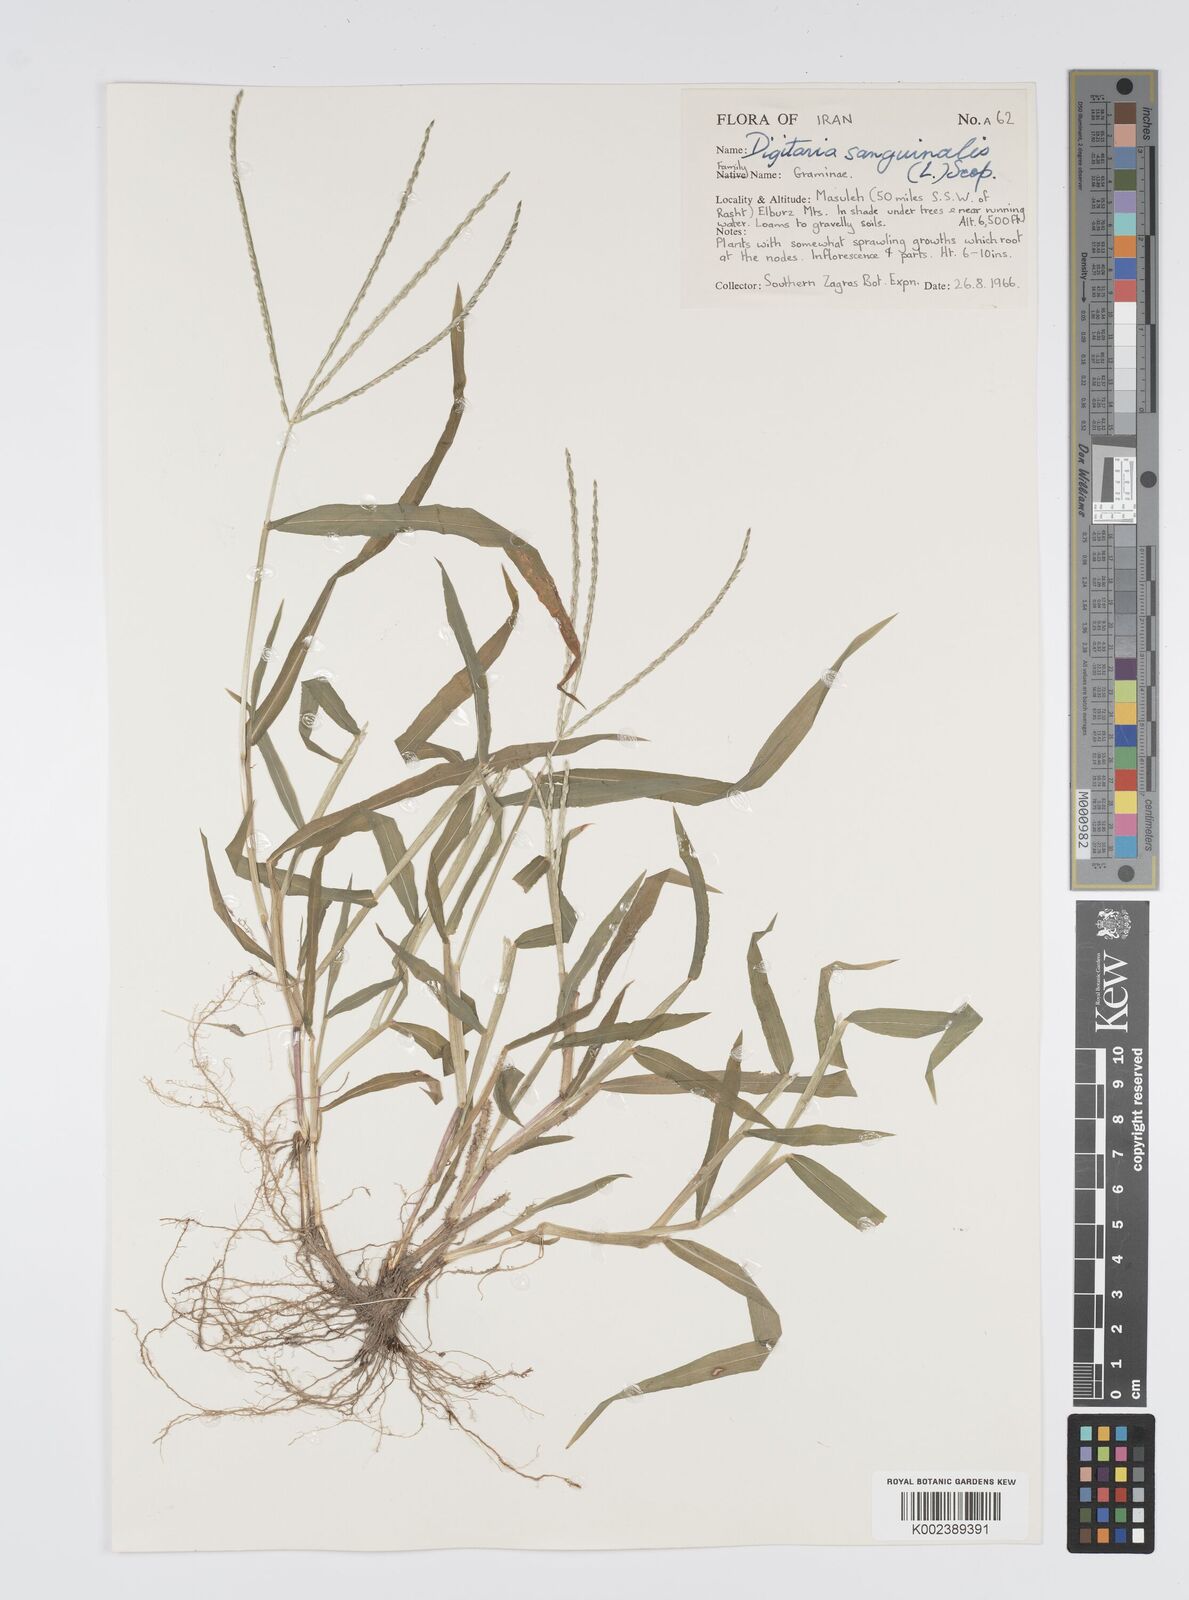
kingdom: Plantae
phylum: Tracheophyta
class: Liliopsida
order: Poales
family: Poaceae
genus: Digitaria
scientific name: Digitaria sanguinalis
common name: Hairy crabgrass
